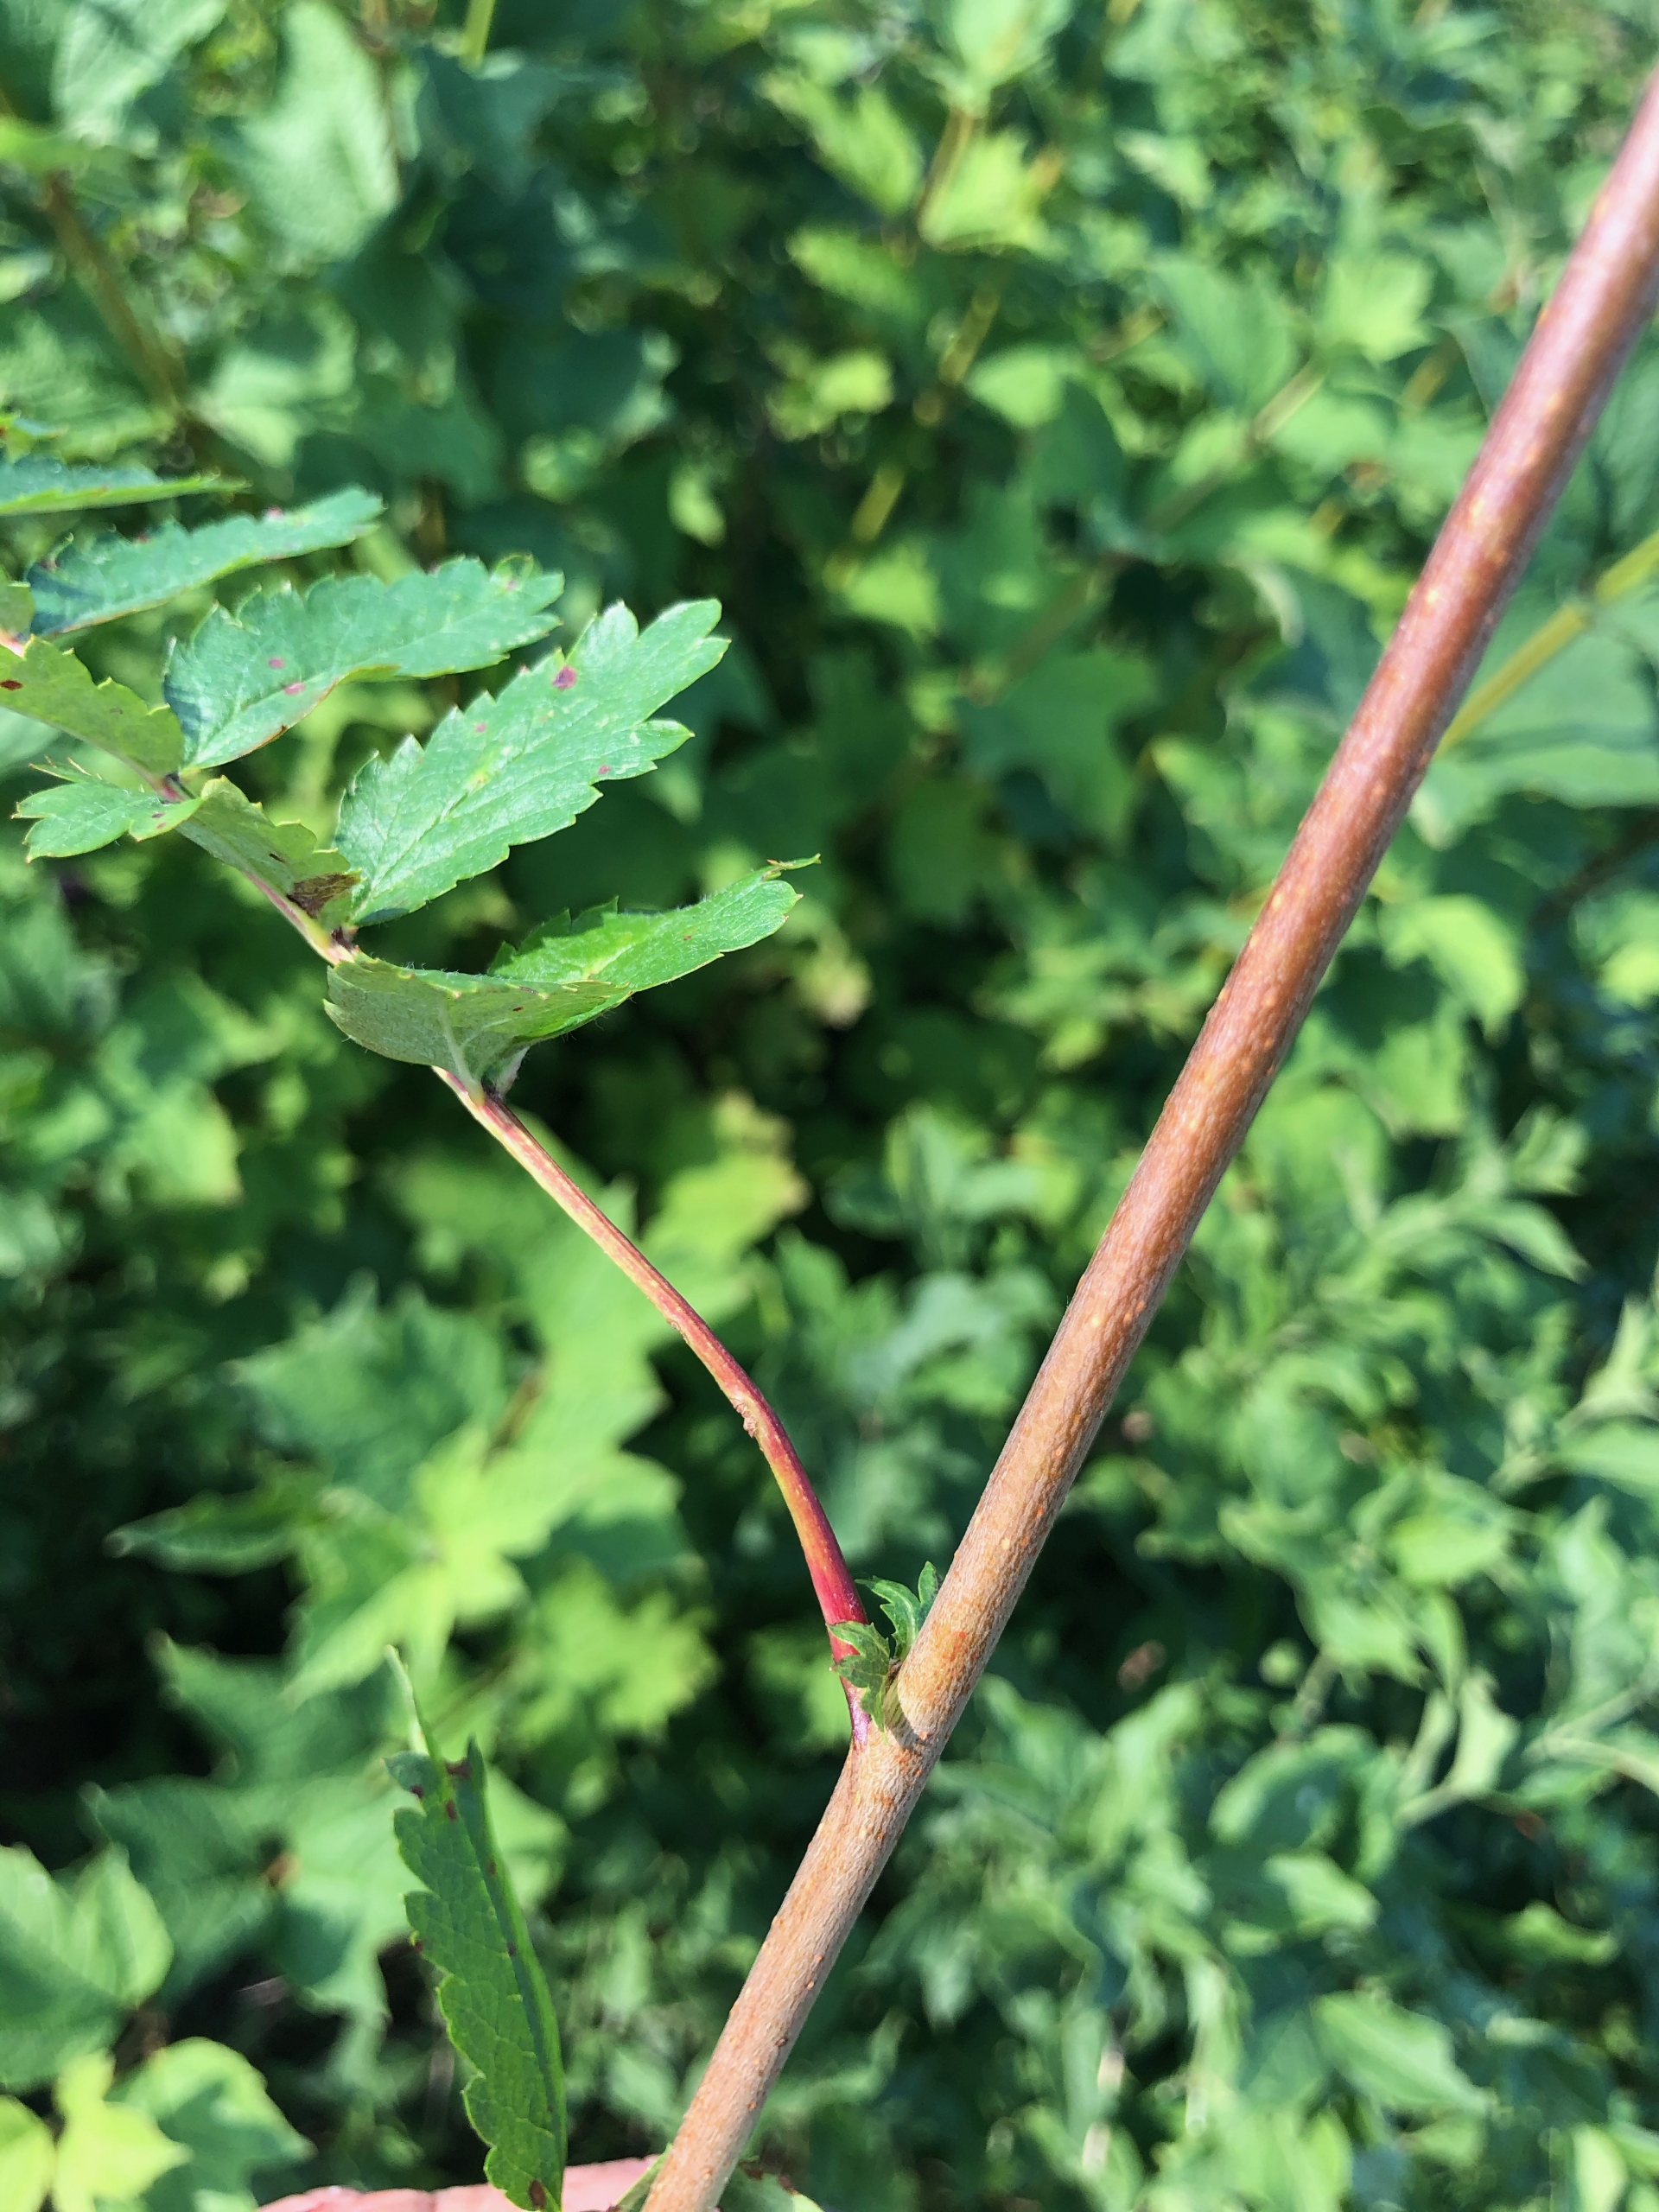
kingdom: Plantae
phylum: Tracheophyta
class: Magnoliopsida
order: Rosales
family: Rosaceae
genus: Sorbus
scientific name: Sorbus aucuparia
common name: Almindelig røn
